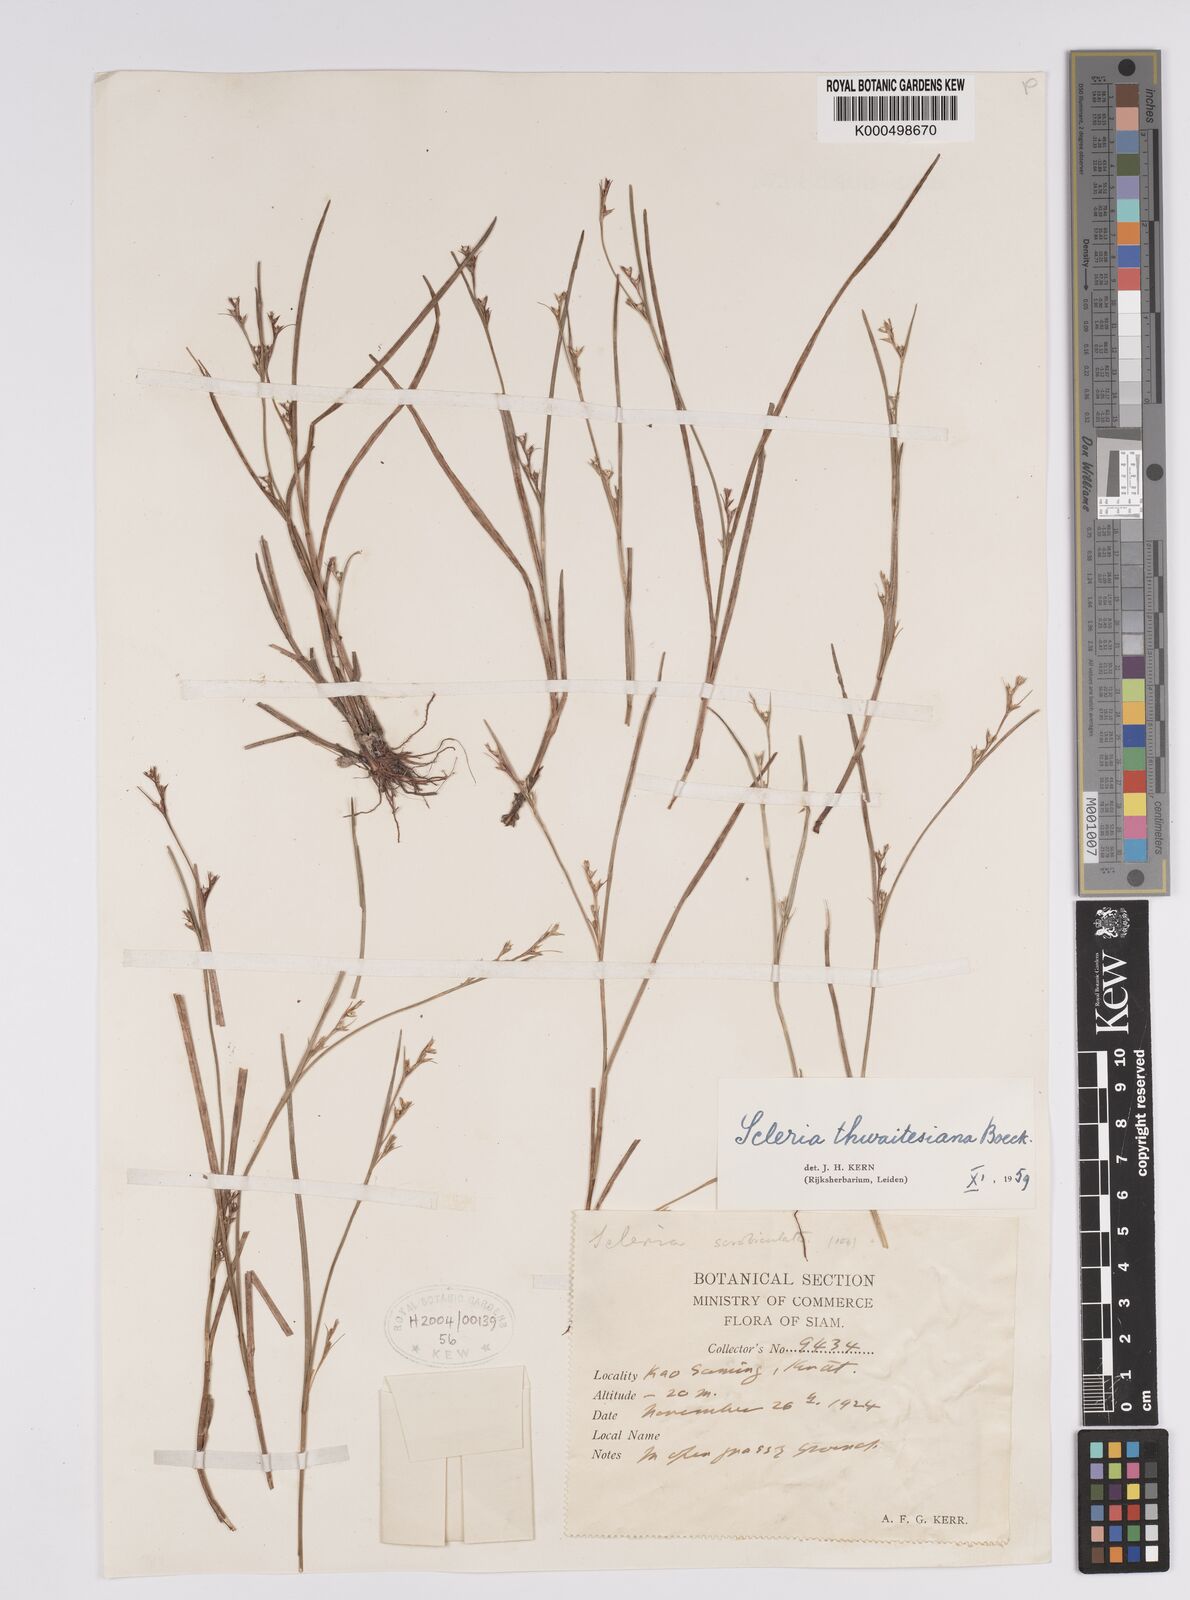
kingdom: Plantae
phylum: Tracheophyta
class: Liliopsida
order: Poales
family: Cyperaceae
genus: Scleria
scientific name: Scleria thwaitesiana
